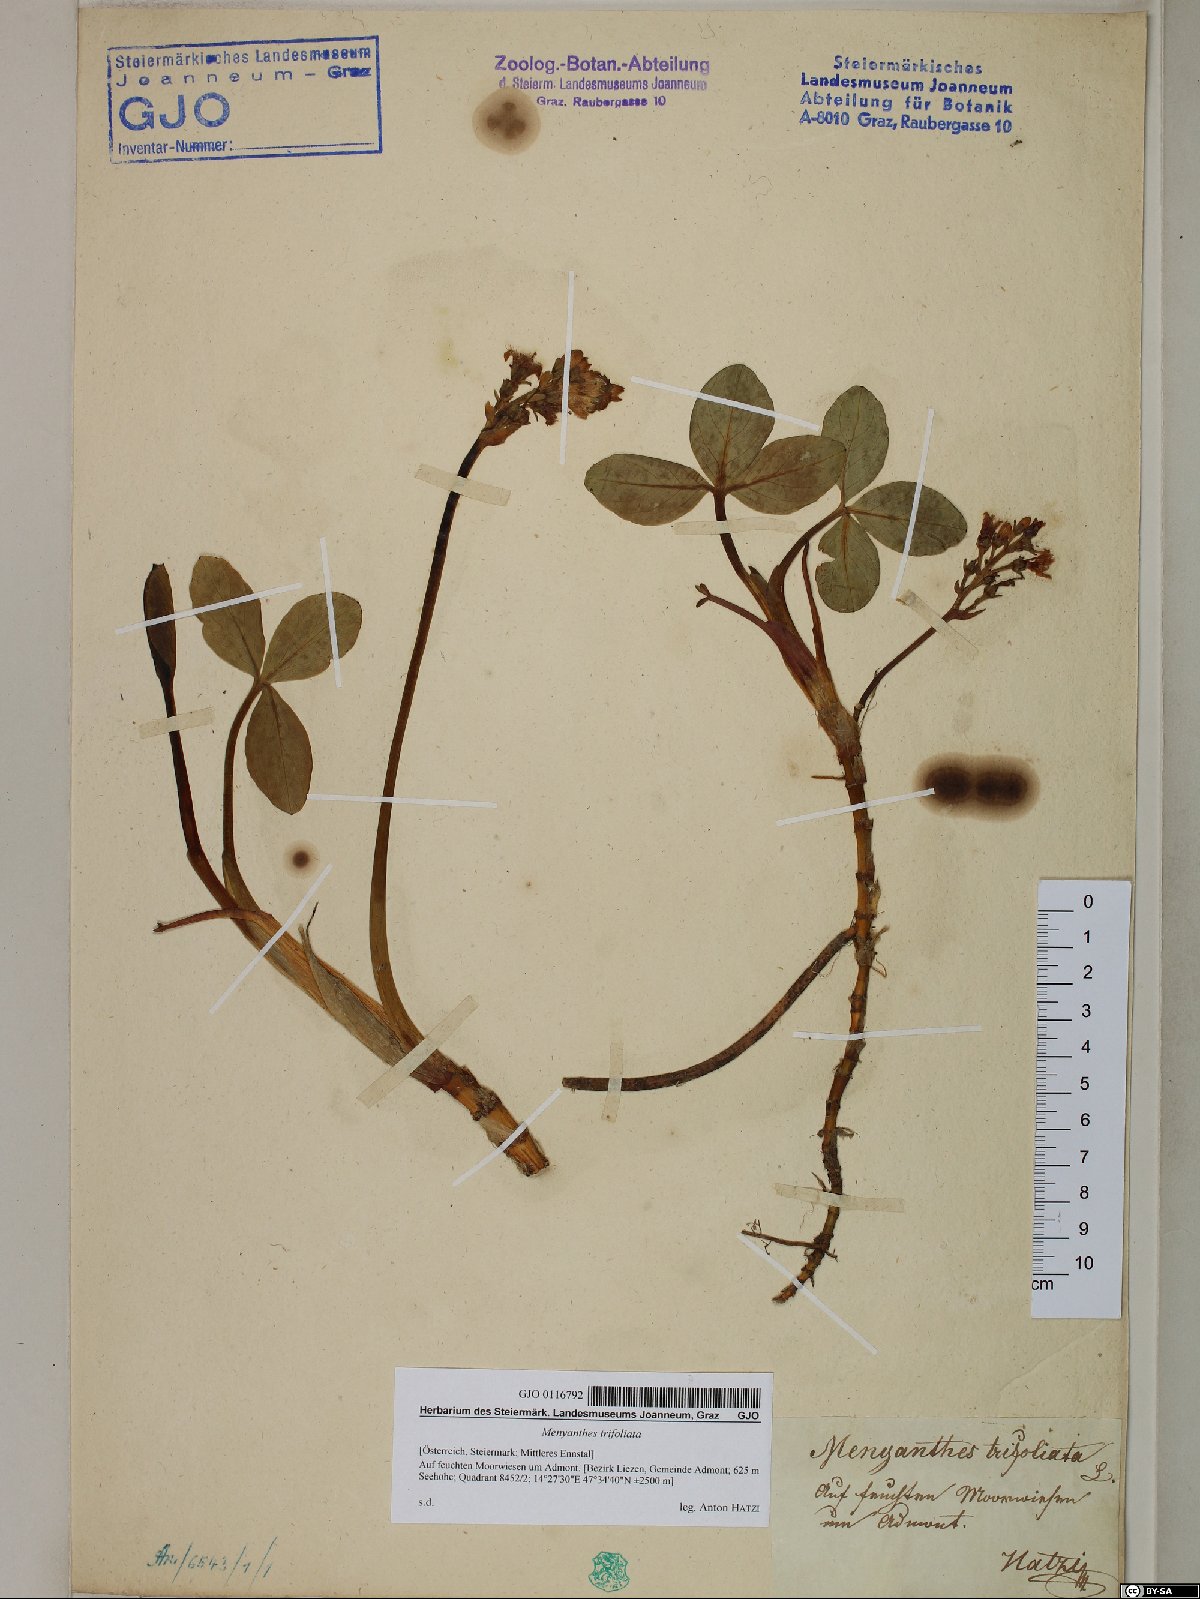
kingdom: Plantae
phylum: Tracheophyta
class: Magnoliopsida
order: Asterales
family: Menyanthaceae
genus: Menyanthes
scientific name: Menyanthes trifoliata
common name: Bogbean
